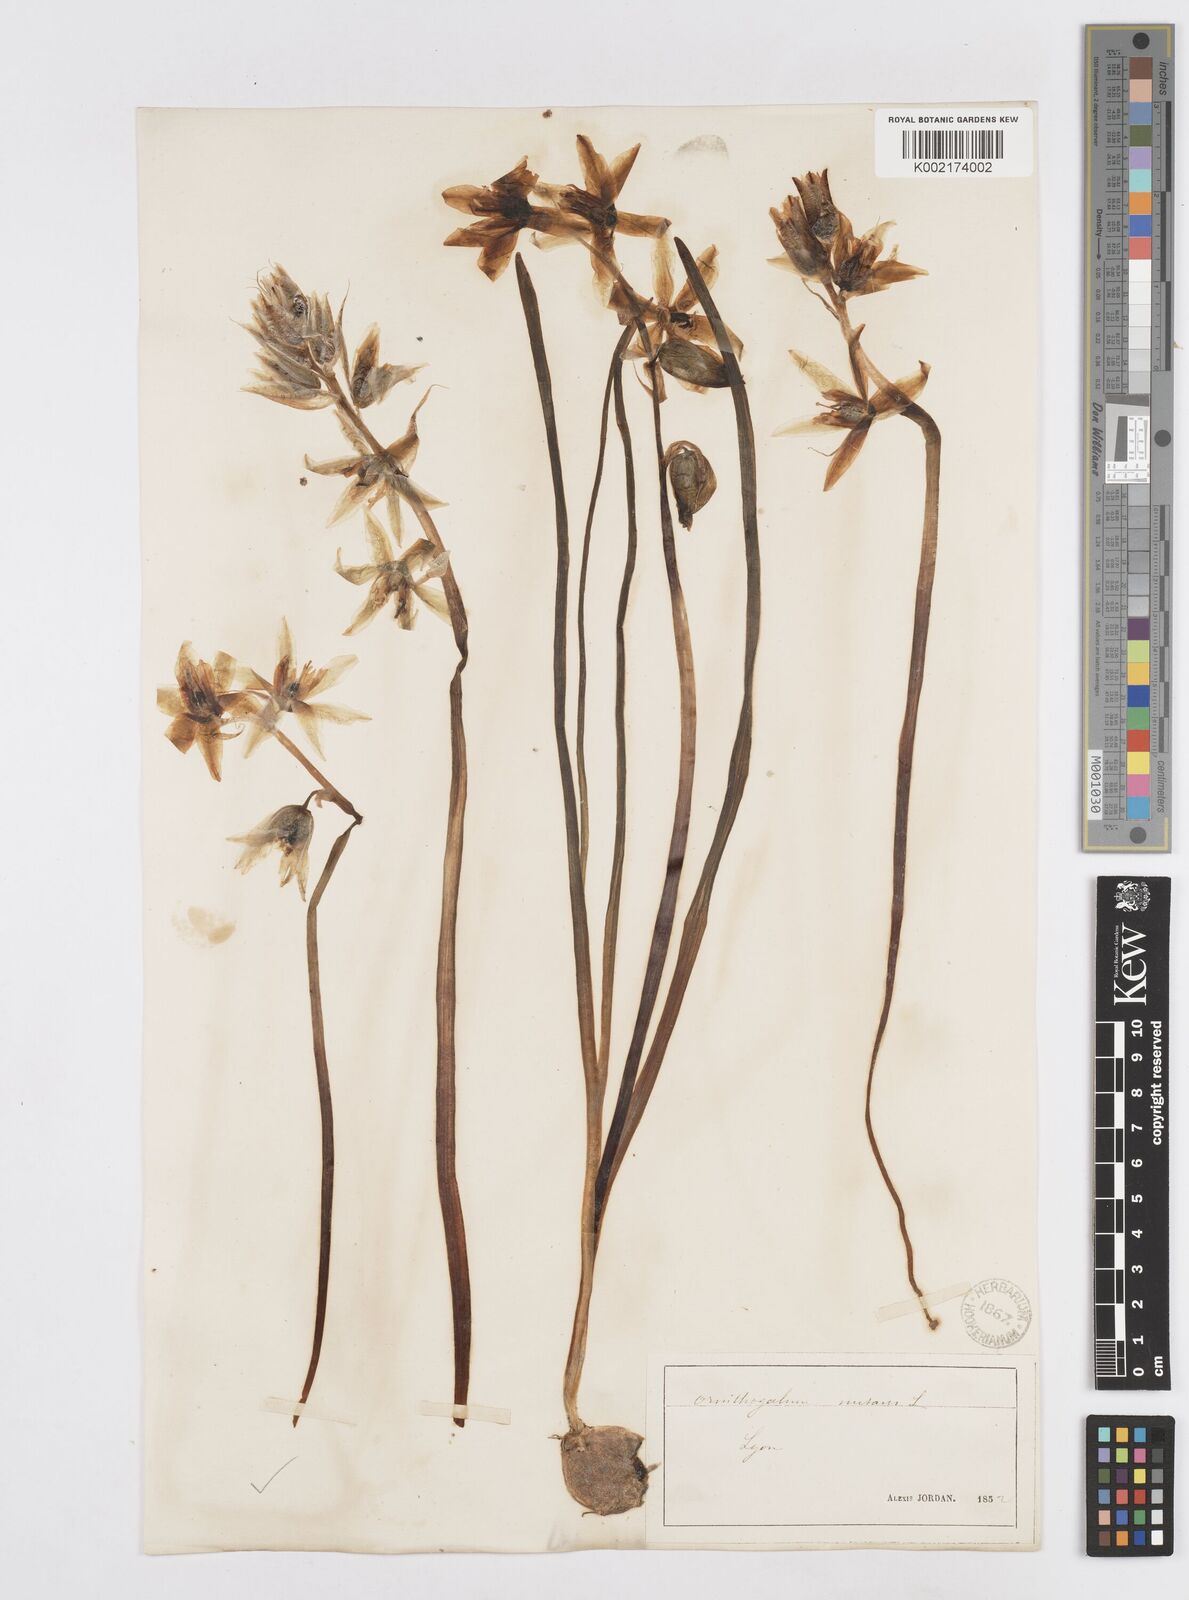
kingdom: Plantae
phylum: Tracheophyta
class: Liliopsida
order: Asparagales
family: Asparagaceae
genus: Ornithogalum
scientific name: Ornithogalum nutans
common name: Drooping star-of-bethlehem
